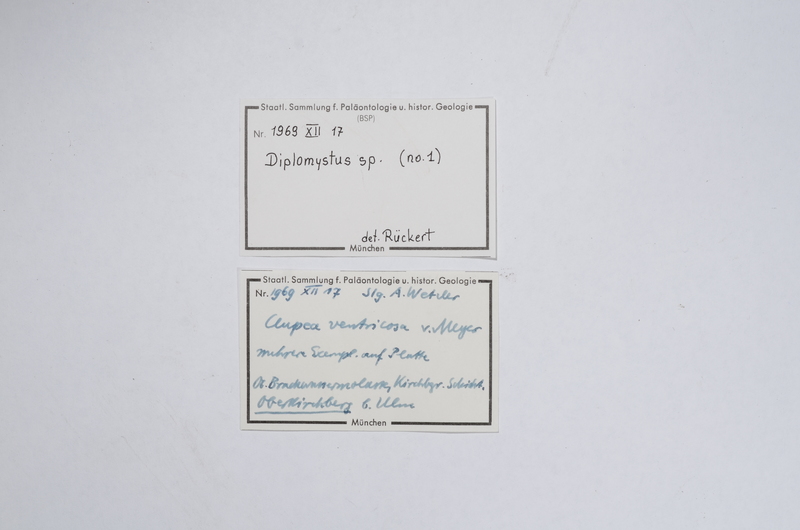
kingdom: Animalia
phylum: Chordata
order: Clupeiformes
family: Clupeidae
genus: Clupea
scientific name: Clupea ventricosa
